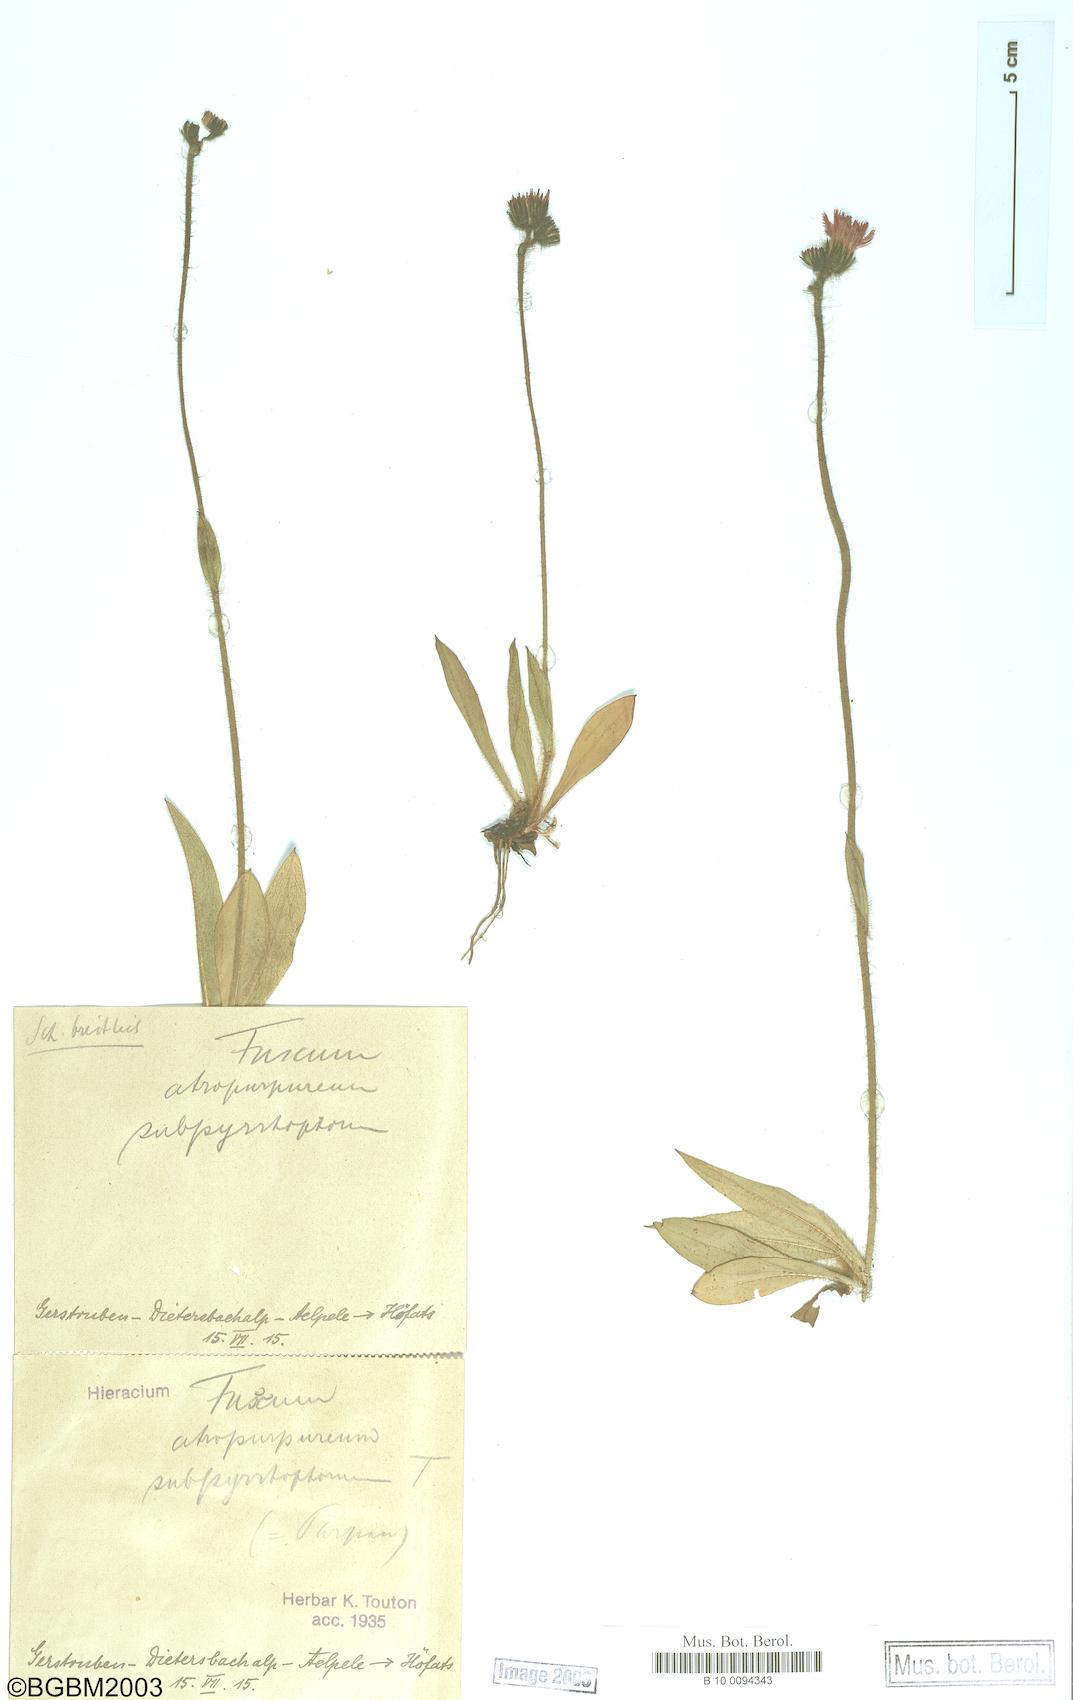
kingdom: Plantae
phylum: Tracheophyta
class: Magnoliopsida
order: Asterales
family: Asteraceae
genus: Hieracium
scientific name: Hieracium fuscum
